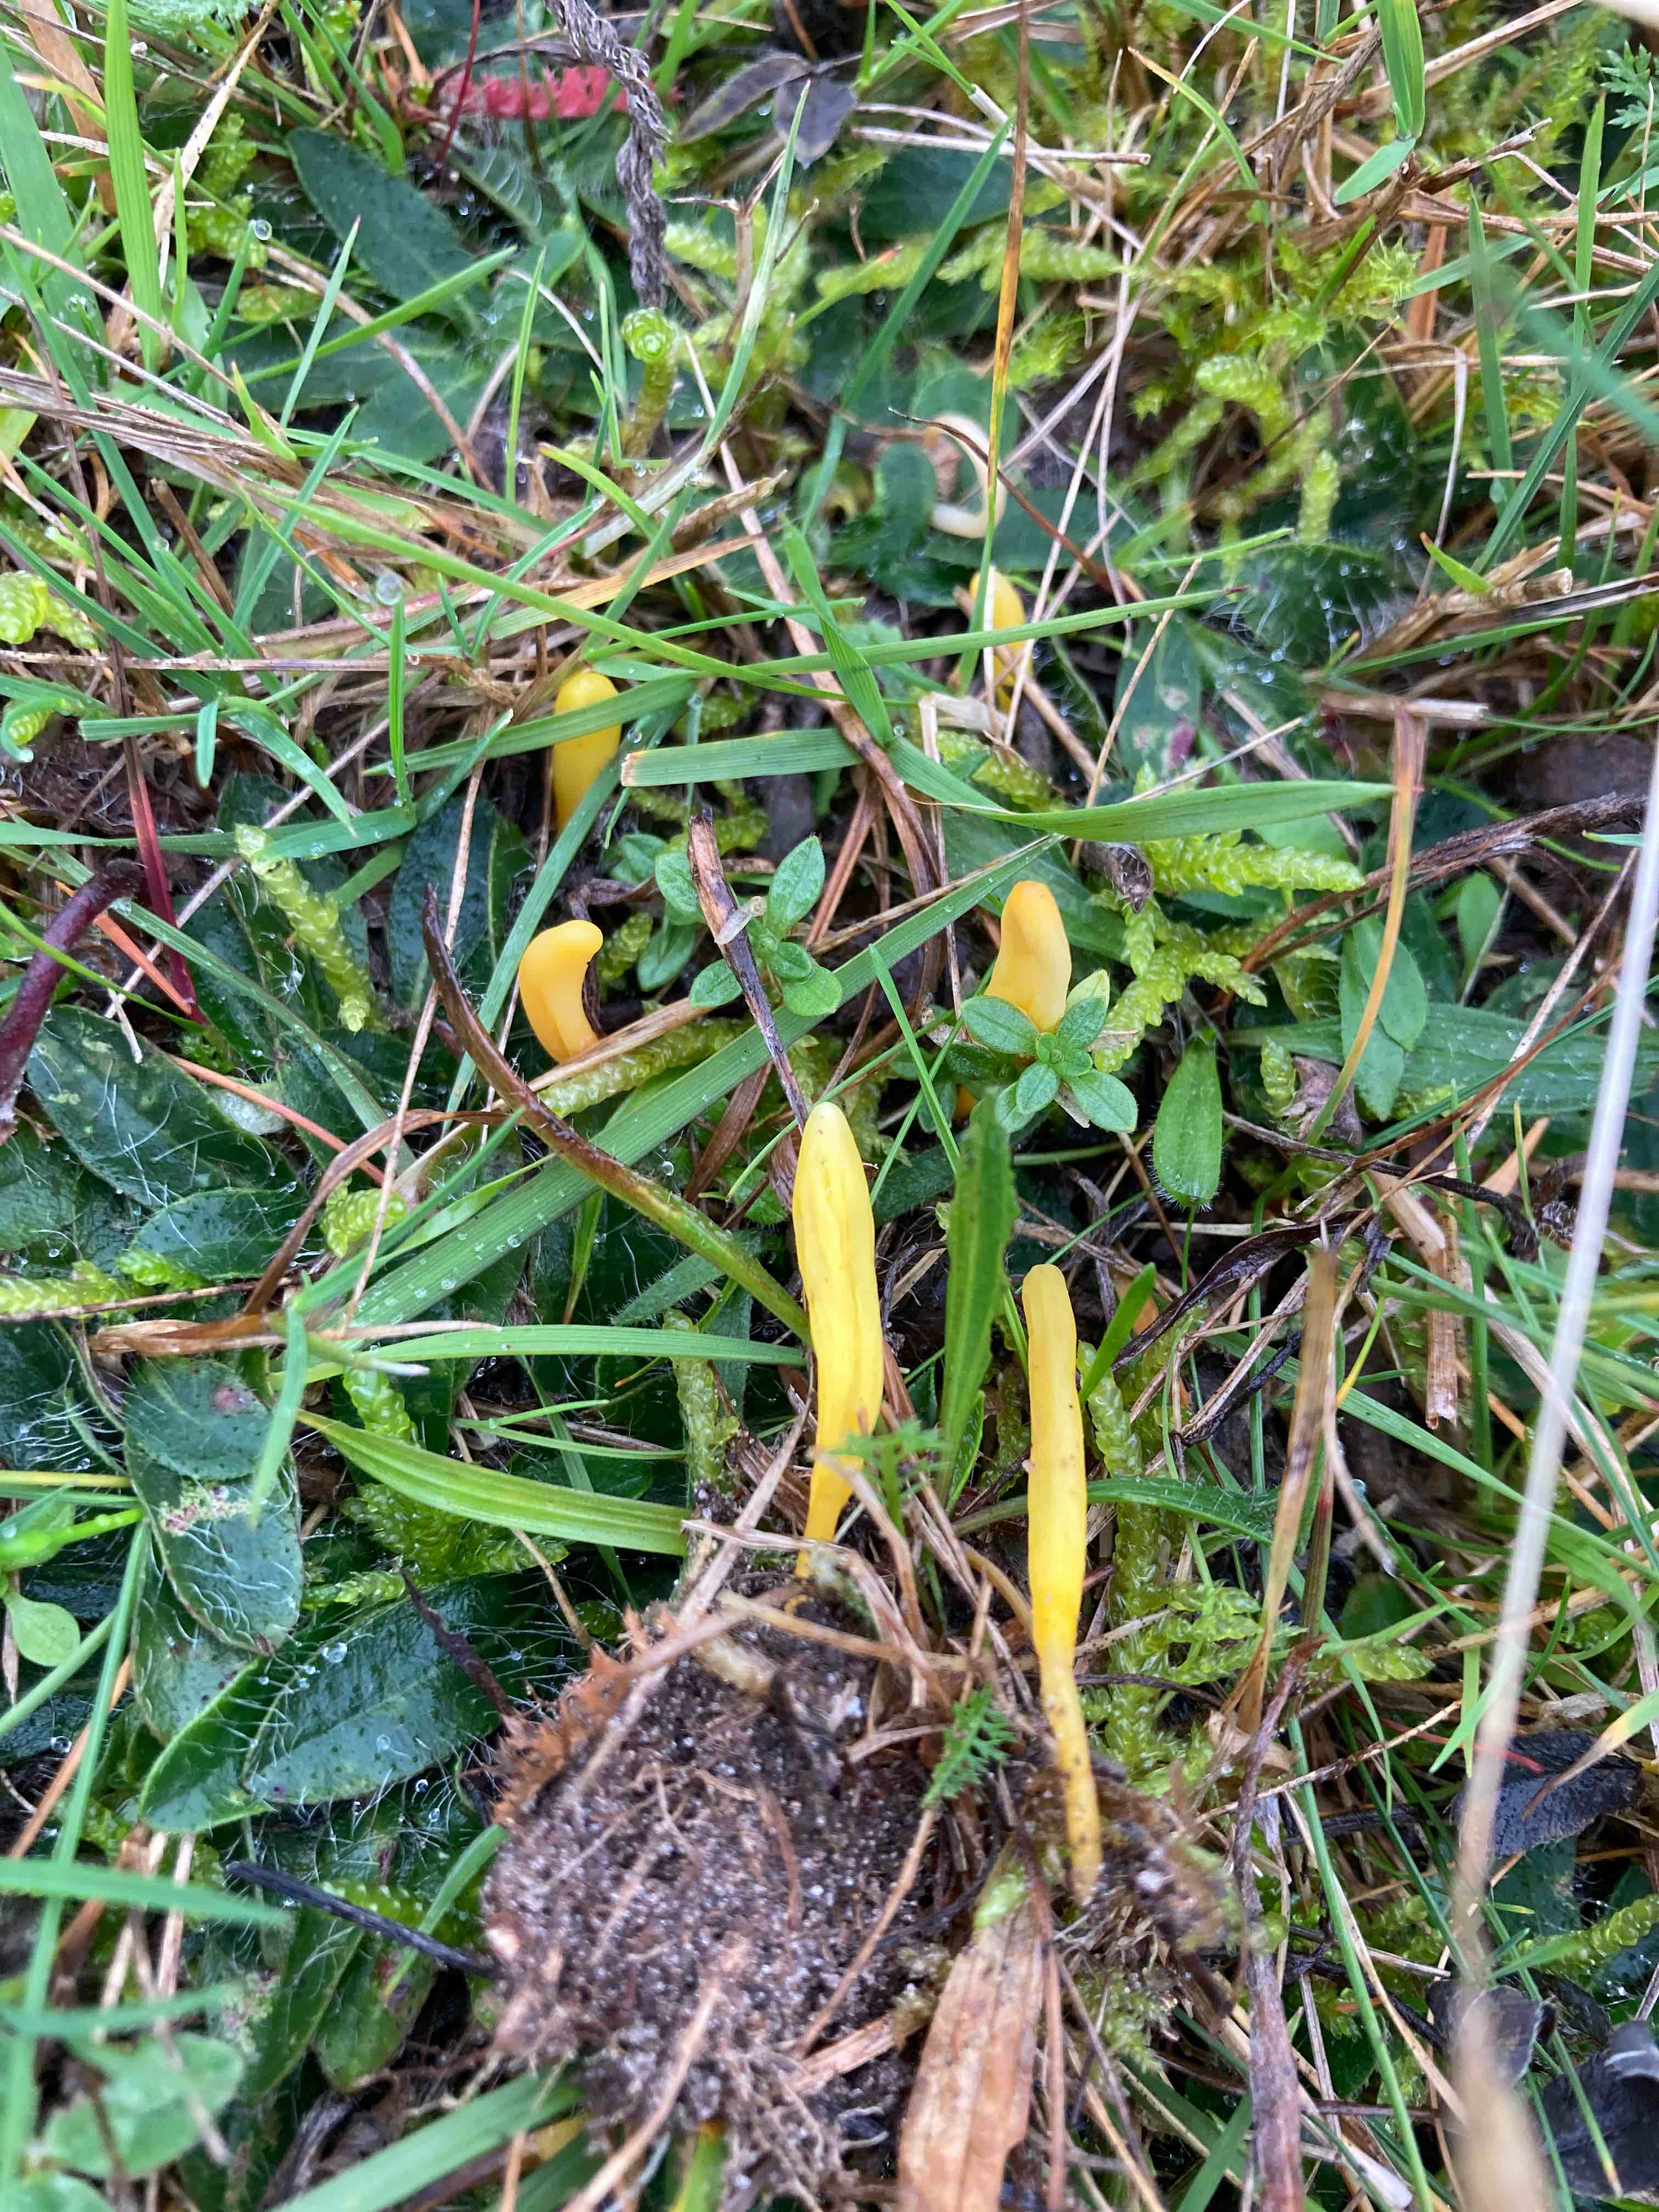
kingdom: Fungi
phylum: Basidiomycota
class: Agaricomycetes
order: Agaricales
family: Clavariaceae
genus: Clavulinopsis
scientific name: Clavulinopsis laeticolor
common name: flamme-køllesvamp
